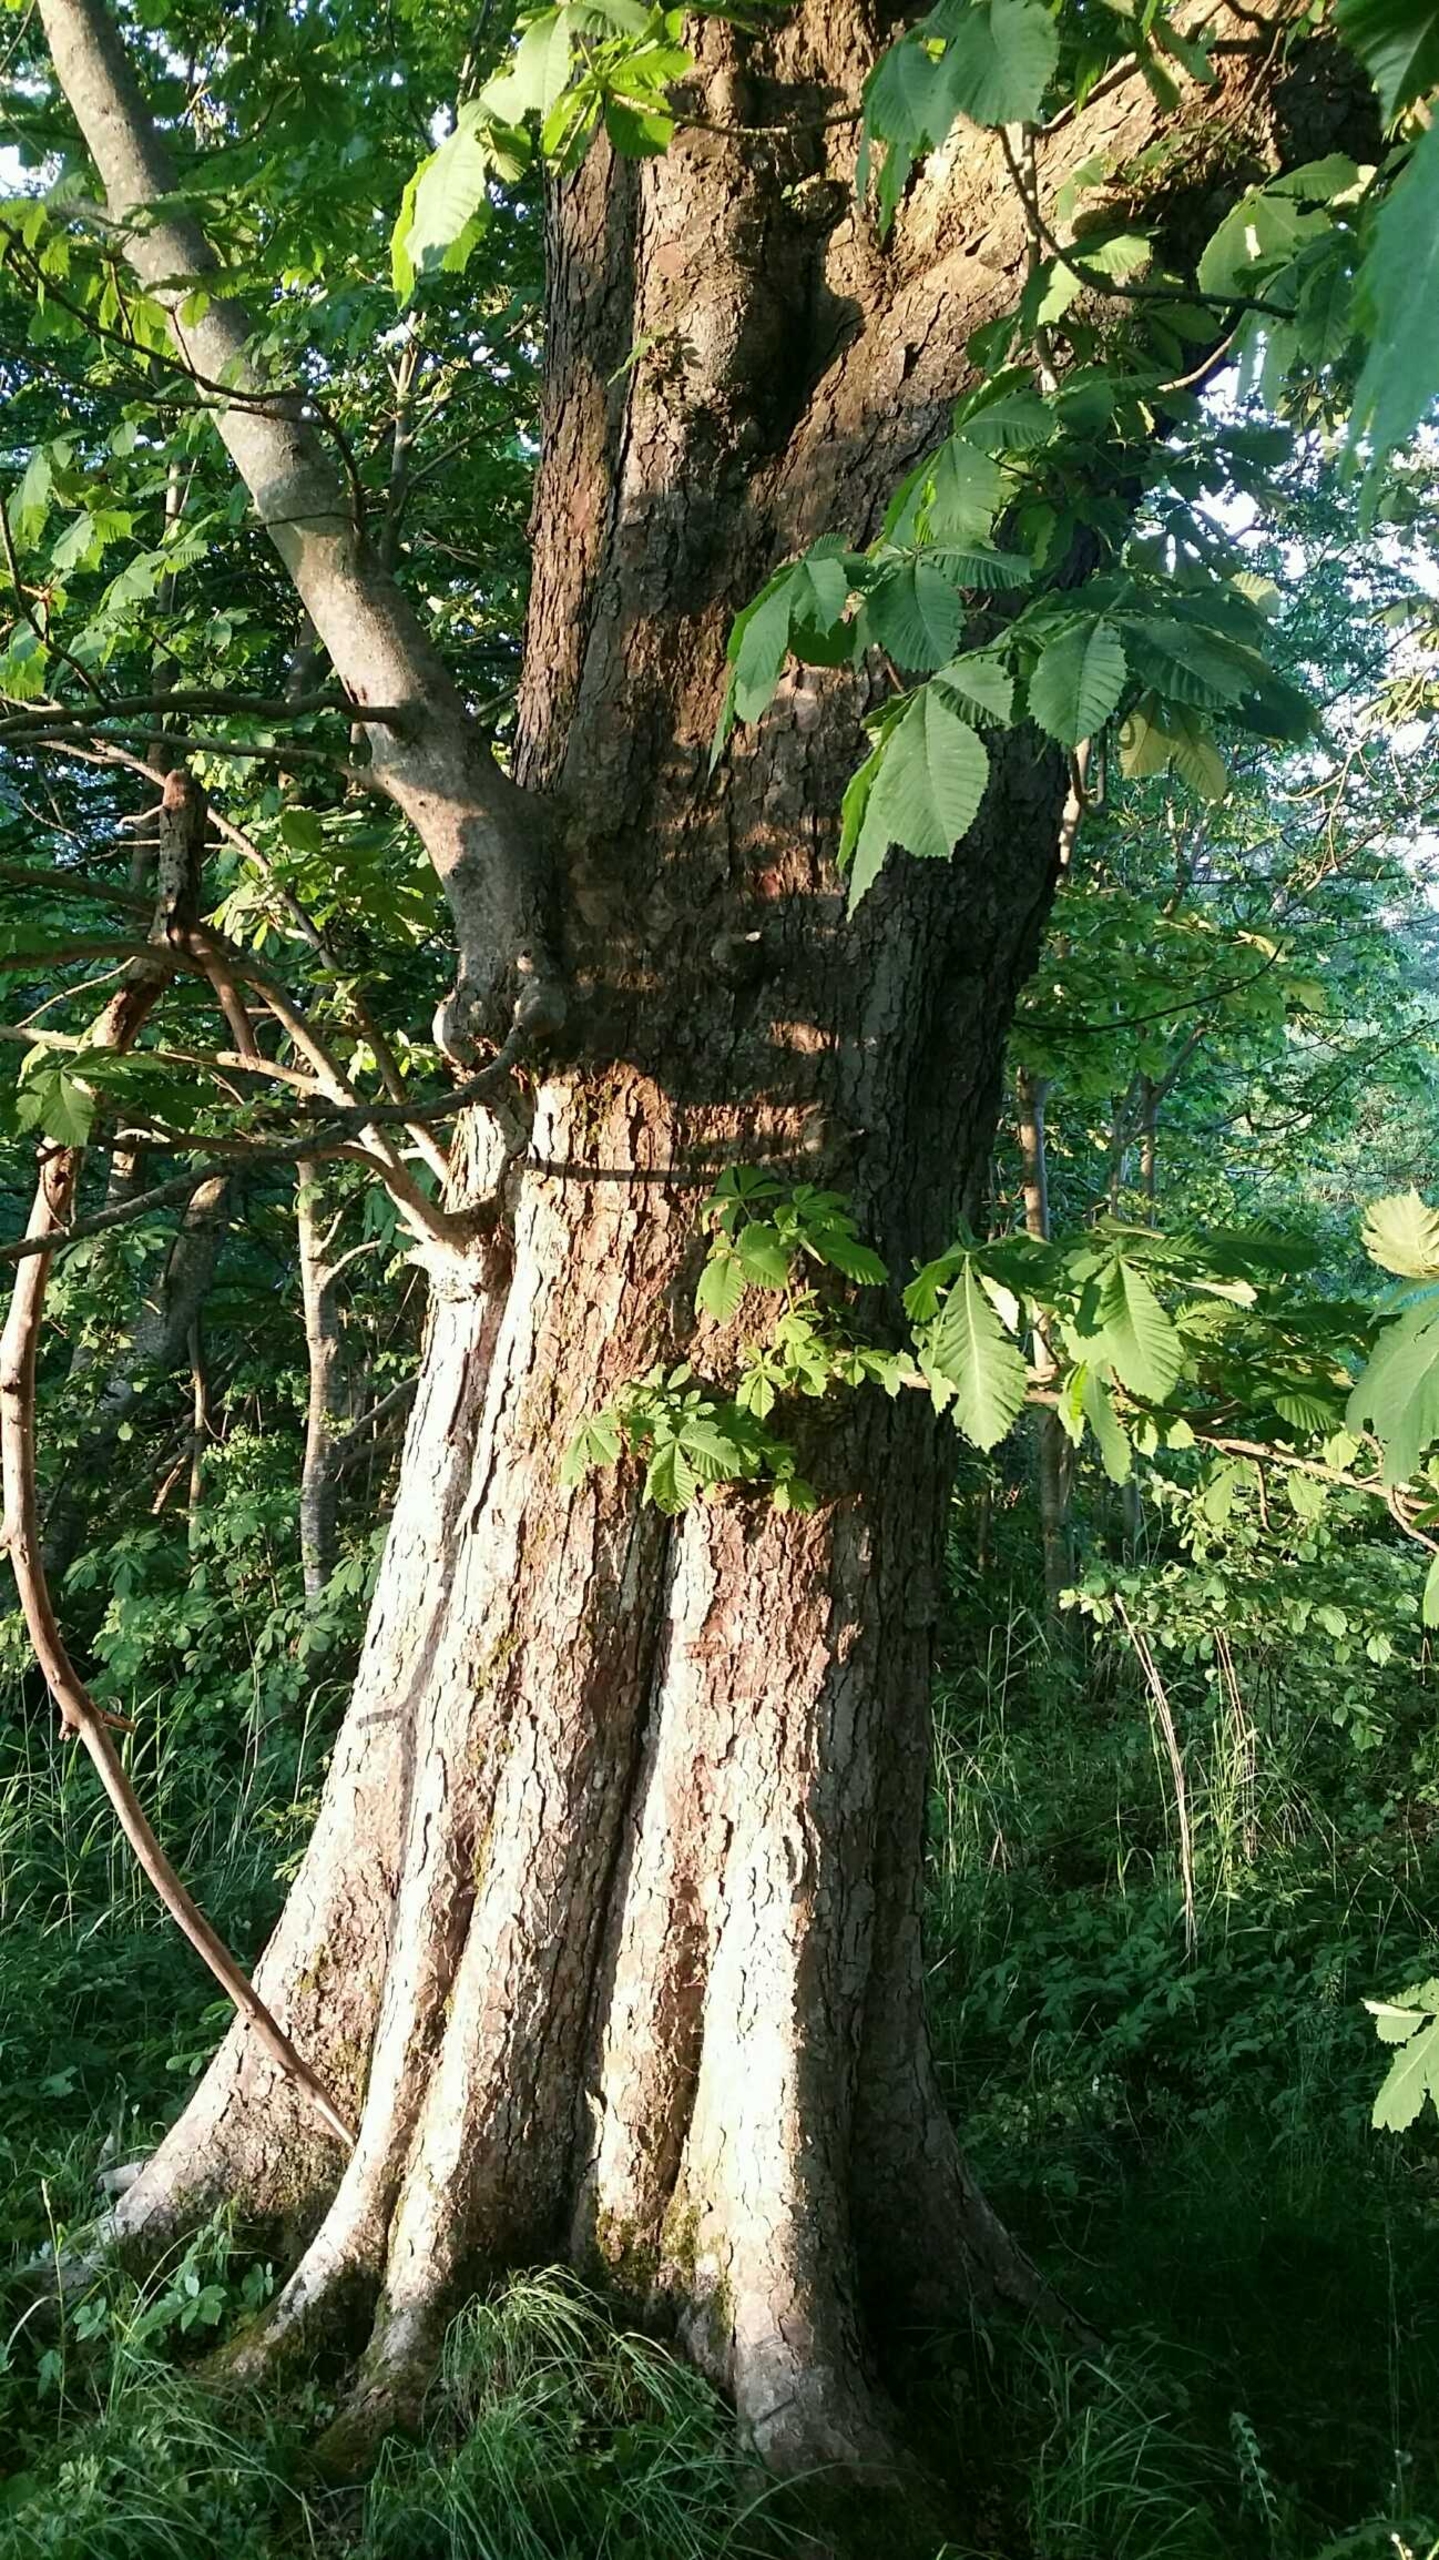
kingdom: Plantae
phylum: Tracheophyta
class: Magnoliopsida
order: Sapindales
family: Sapindaceae
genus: Aesculus
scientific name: Aesculus hippocastanum
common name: Hestekastanie
